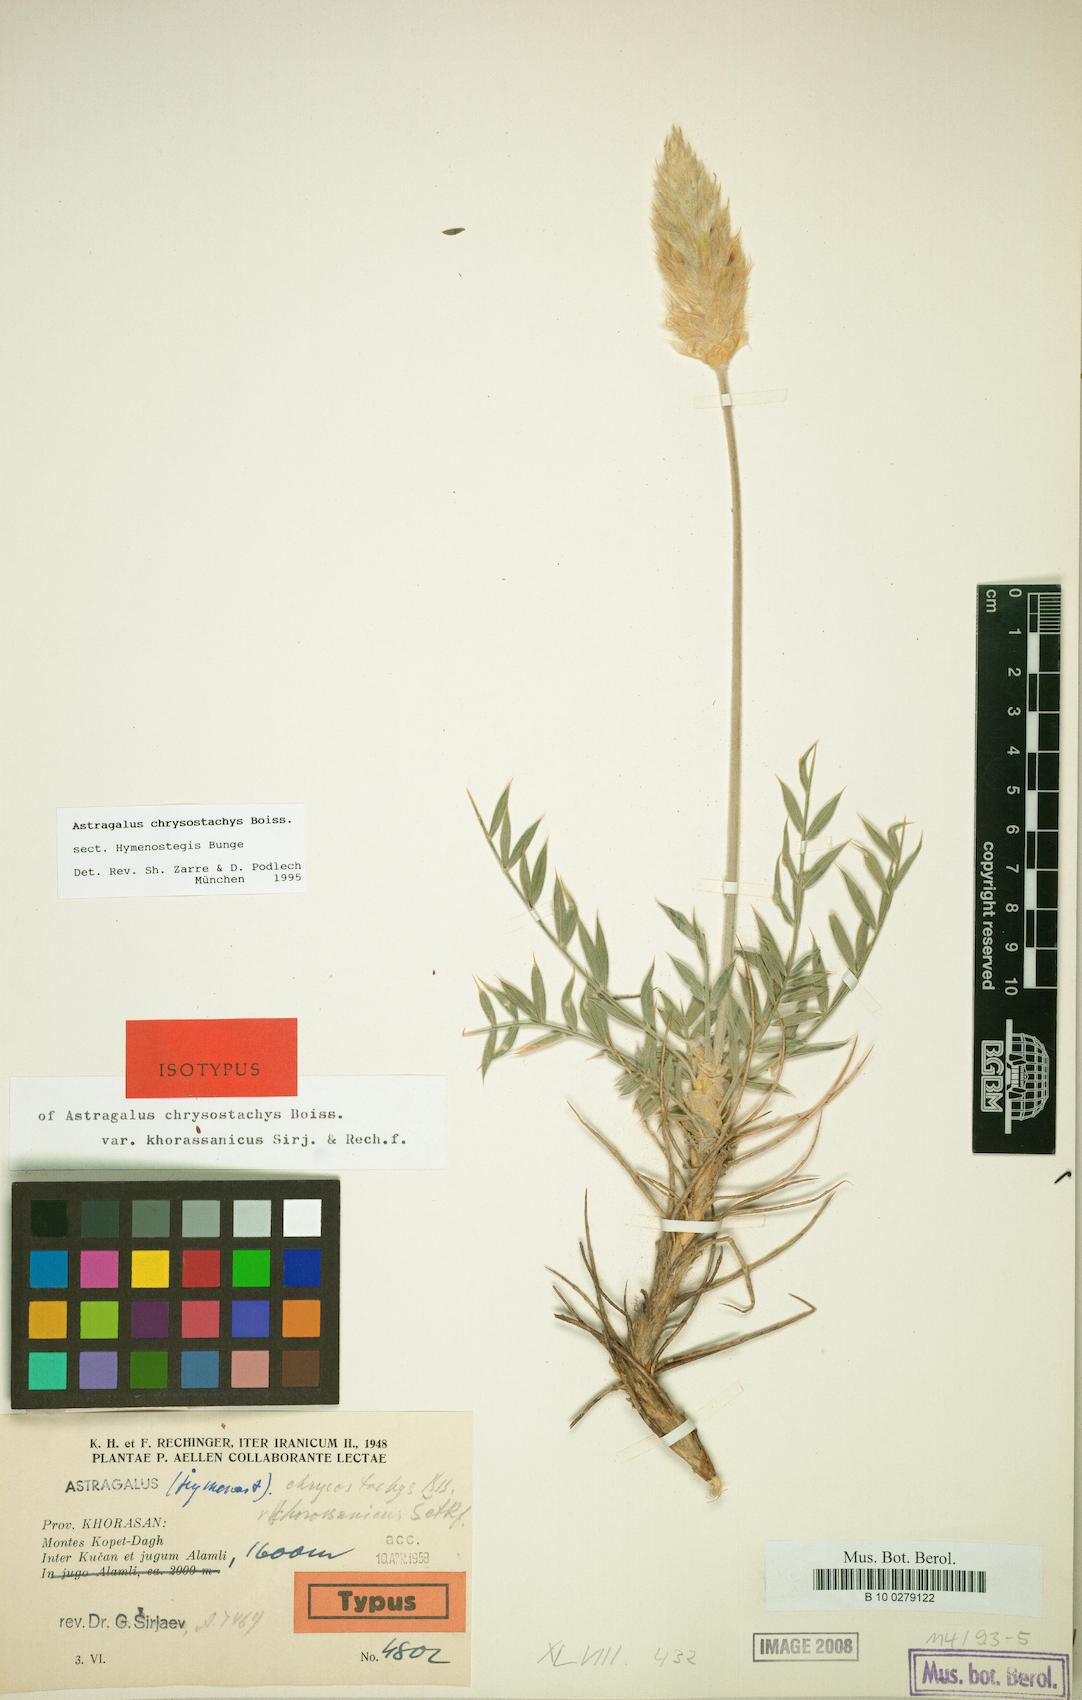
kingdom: Plantae
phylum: Tracheophyta
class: Magnoliopsida
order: Fabales
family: Fabaceae
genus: Astragalus
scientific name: Astragalus chrysostachys
